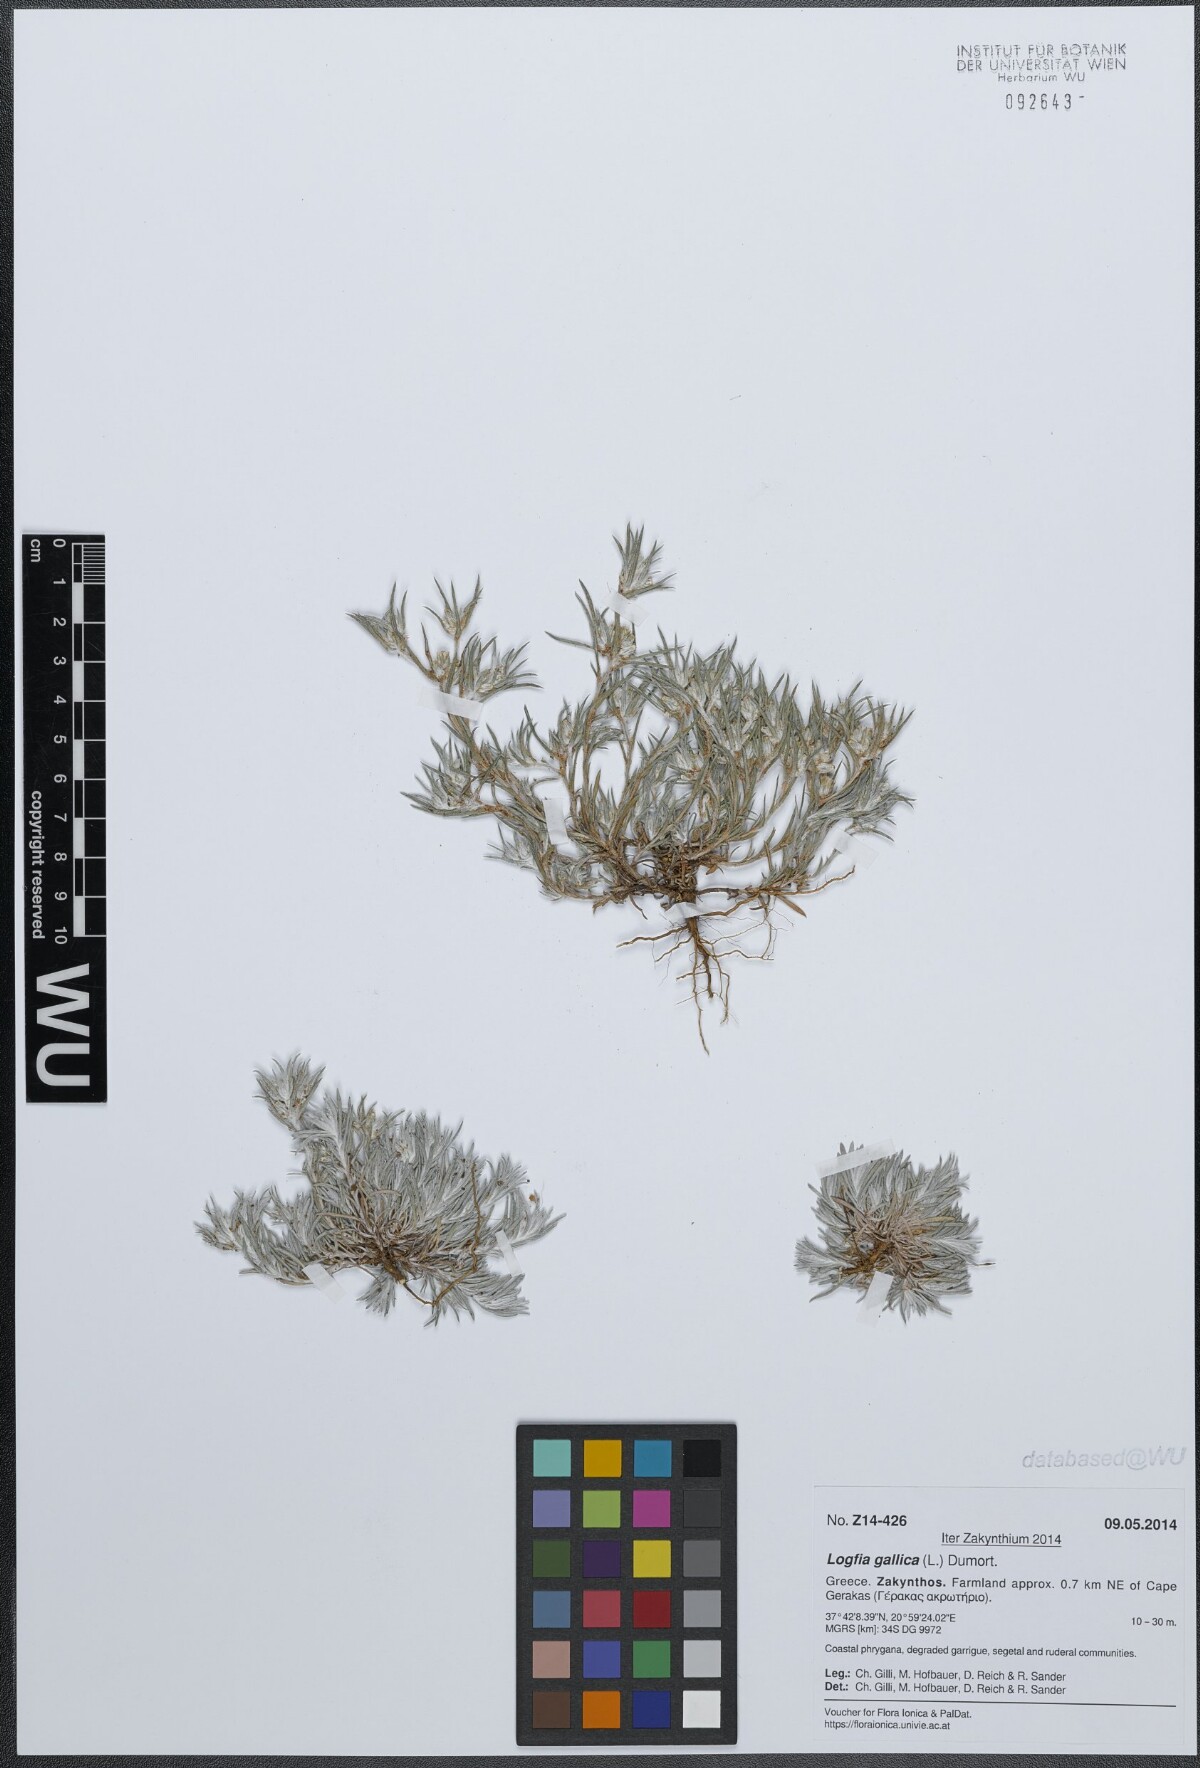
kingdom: Plantae
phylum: Tracheophyta
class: Magnoliopsida
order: Asterales
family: Asteraceae
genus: Logfia
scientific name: Logfia gallica
